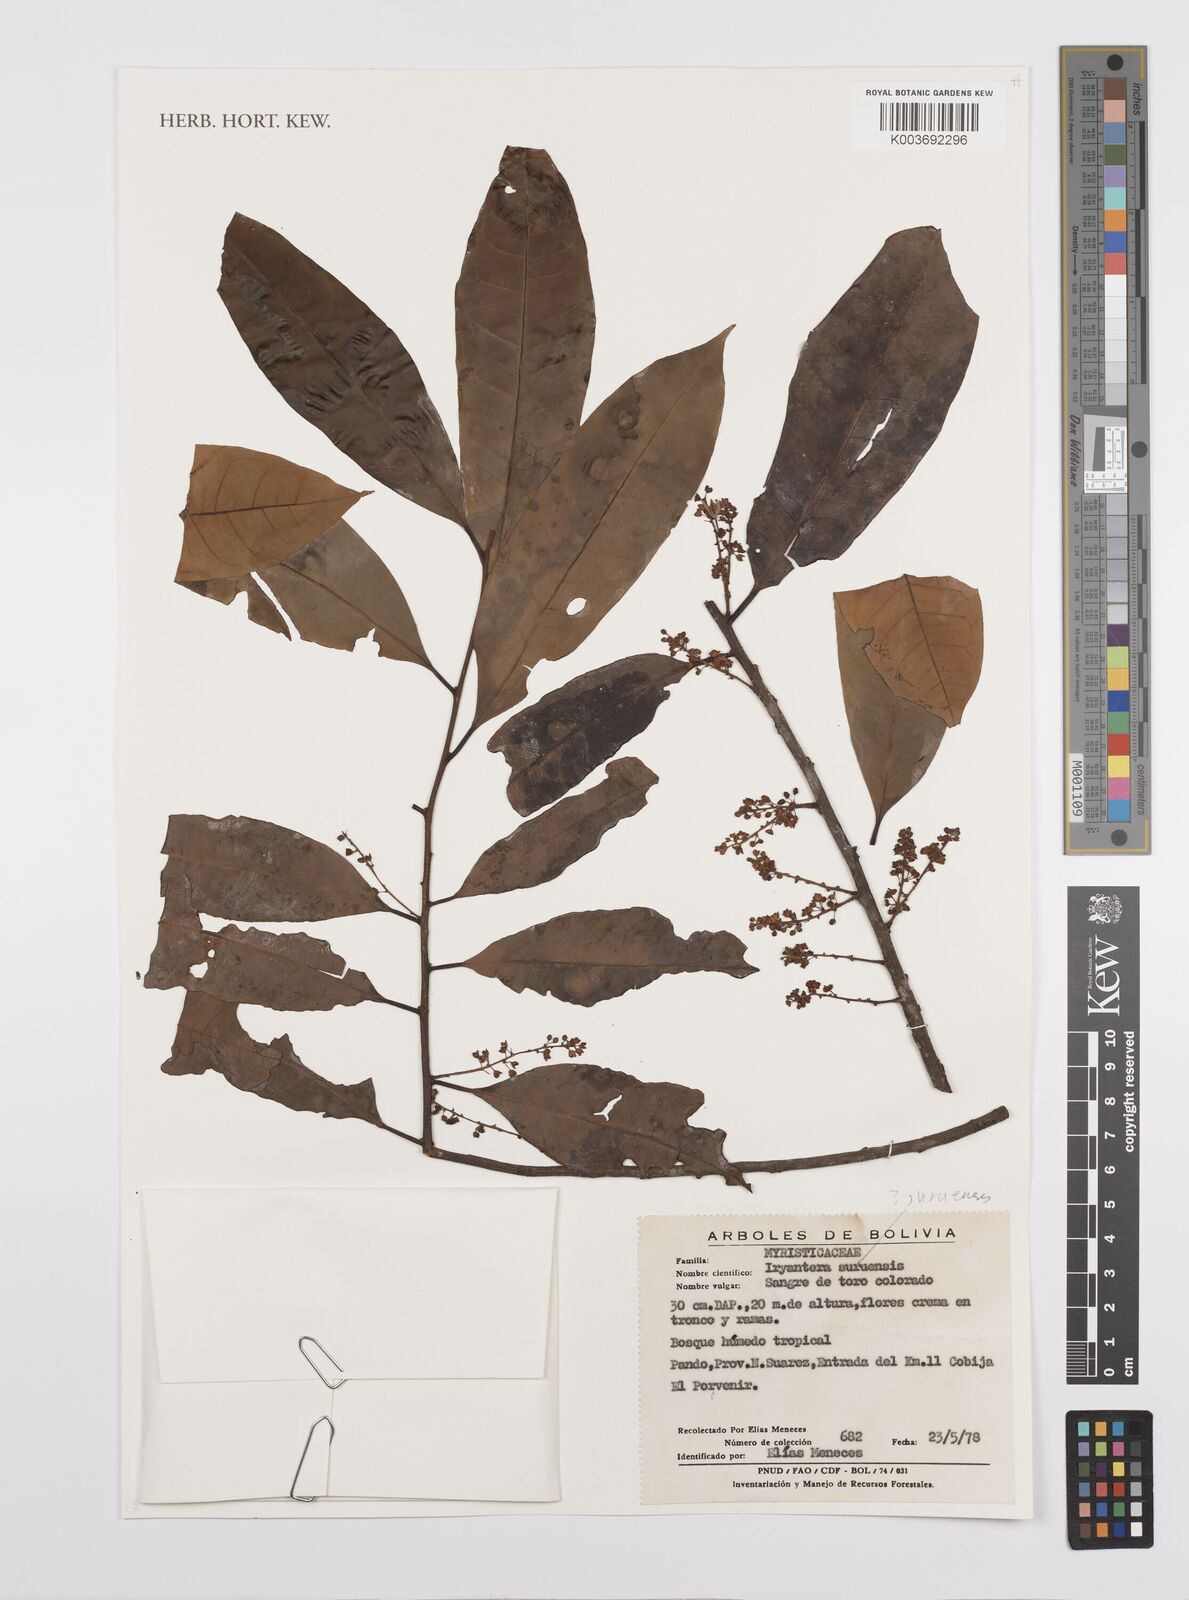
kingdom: Plantae
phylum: Tracheophyta
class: Magnoliopsida
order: Magnoliales
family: Myristicaceae
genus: Iryanthera
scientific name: Iryanthera juruensis
